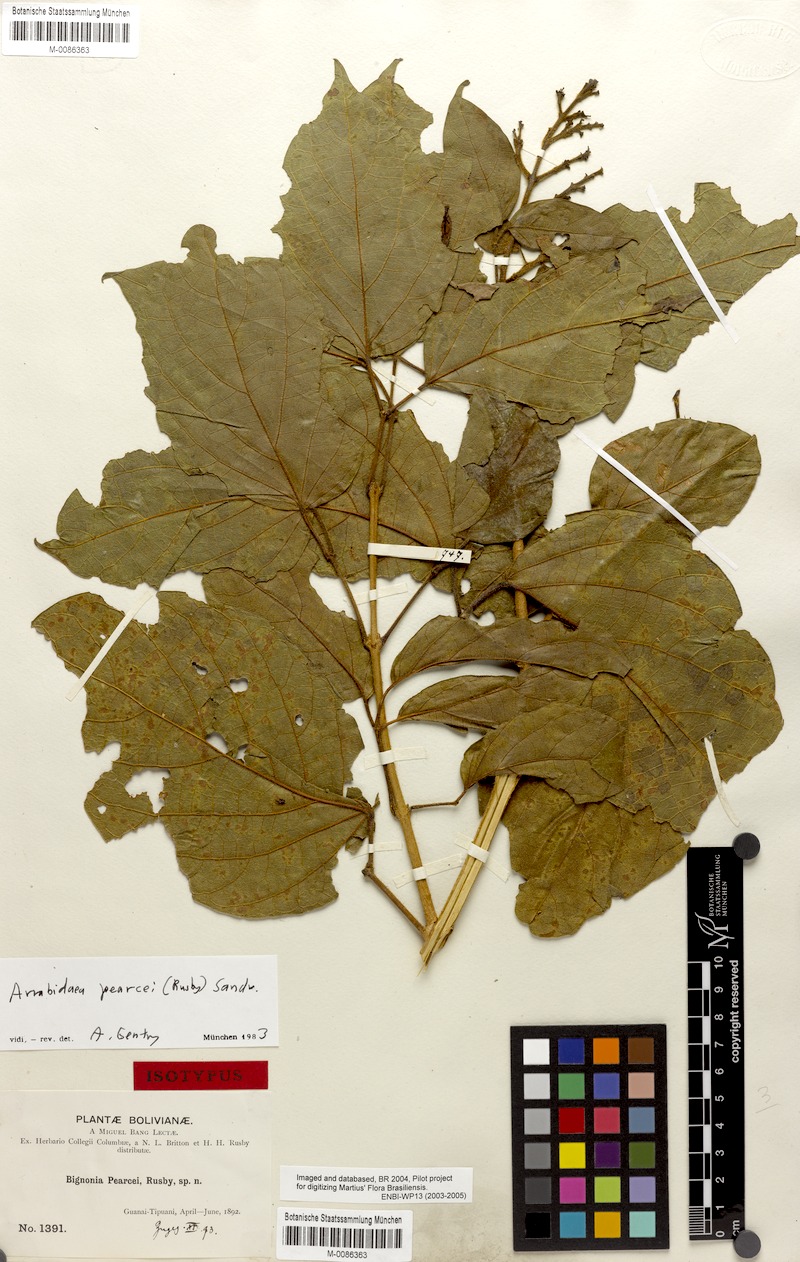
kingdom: Plantae
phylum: Tracheophyta
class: Magnoliopsida
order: Lamiales
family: Bignoniaceae
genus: Fridericia
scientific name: Fridericia arthrerion
